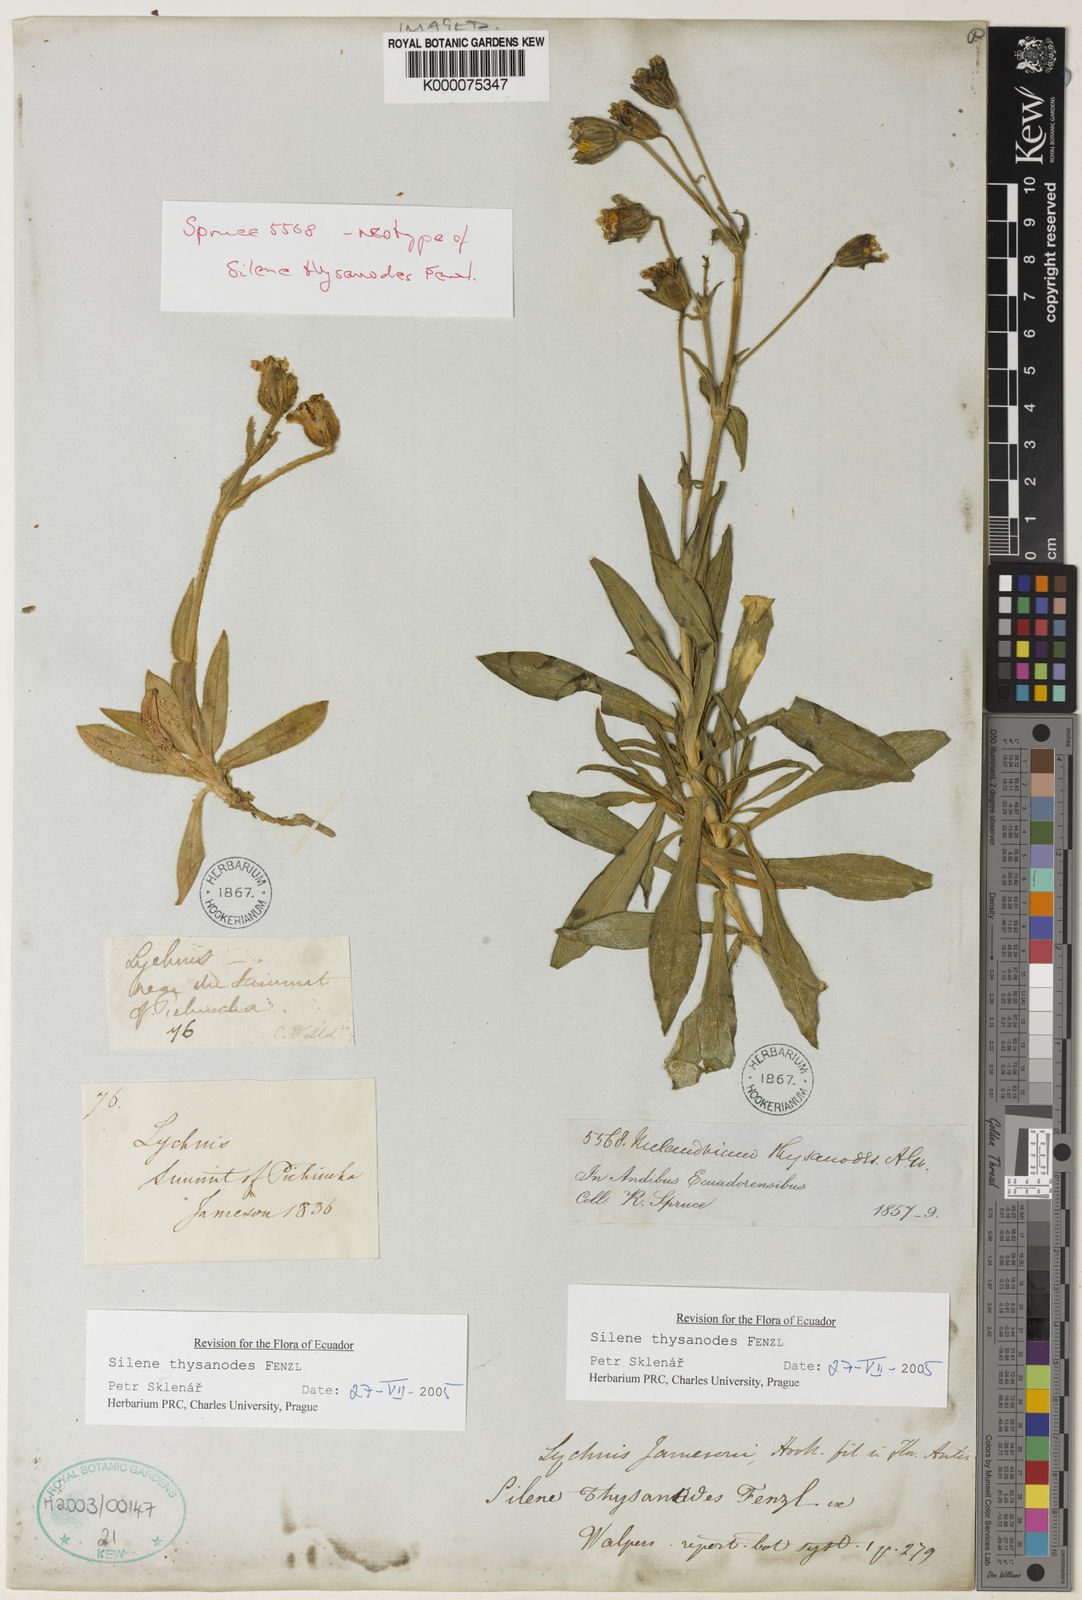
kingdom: Plantae
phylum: Tracheophyta
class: Magnoliopsida
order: Caryophyllales
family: Caryophyllaceae
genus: Silene
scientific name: Silene thysanodes
